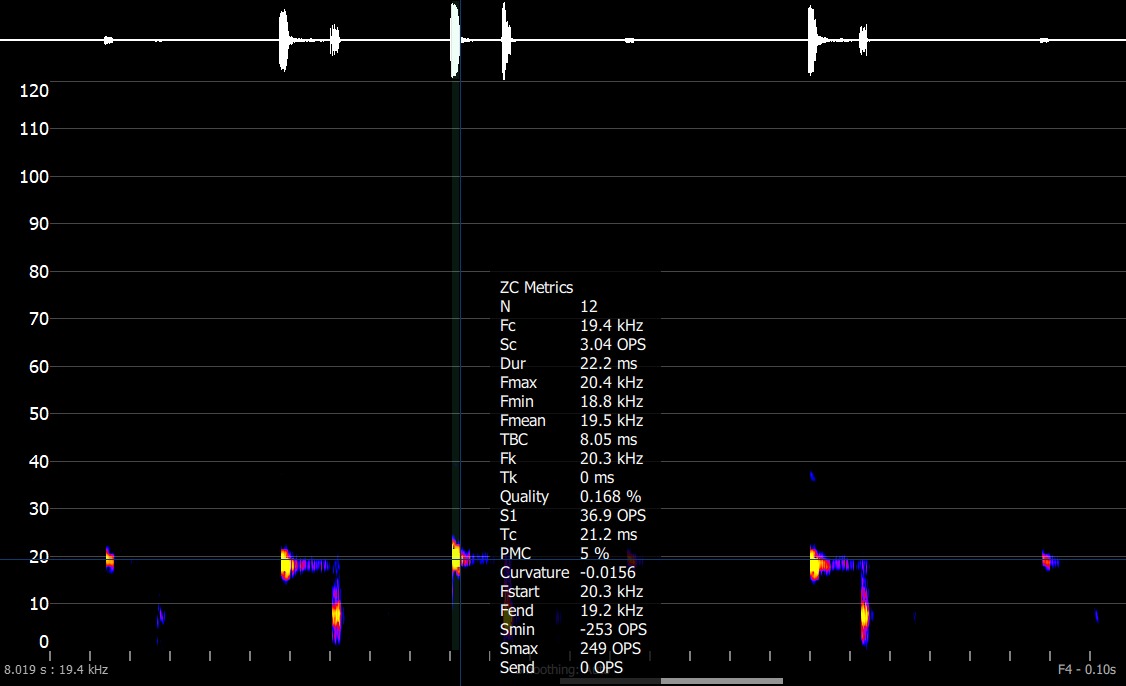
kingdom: Animalia
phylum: Chordata
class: Mammalia
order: Chiroptera
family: Vespertilionidae
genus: Nyctalus
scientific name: Nyctalus noctula
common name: Brunflagermus
